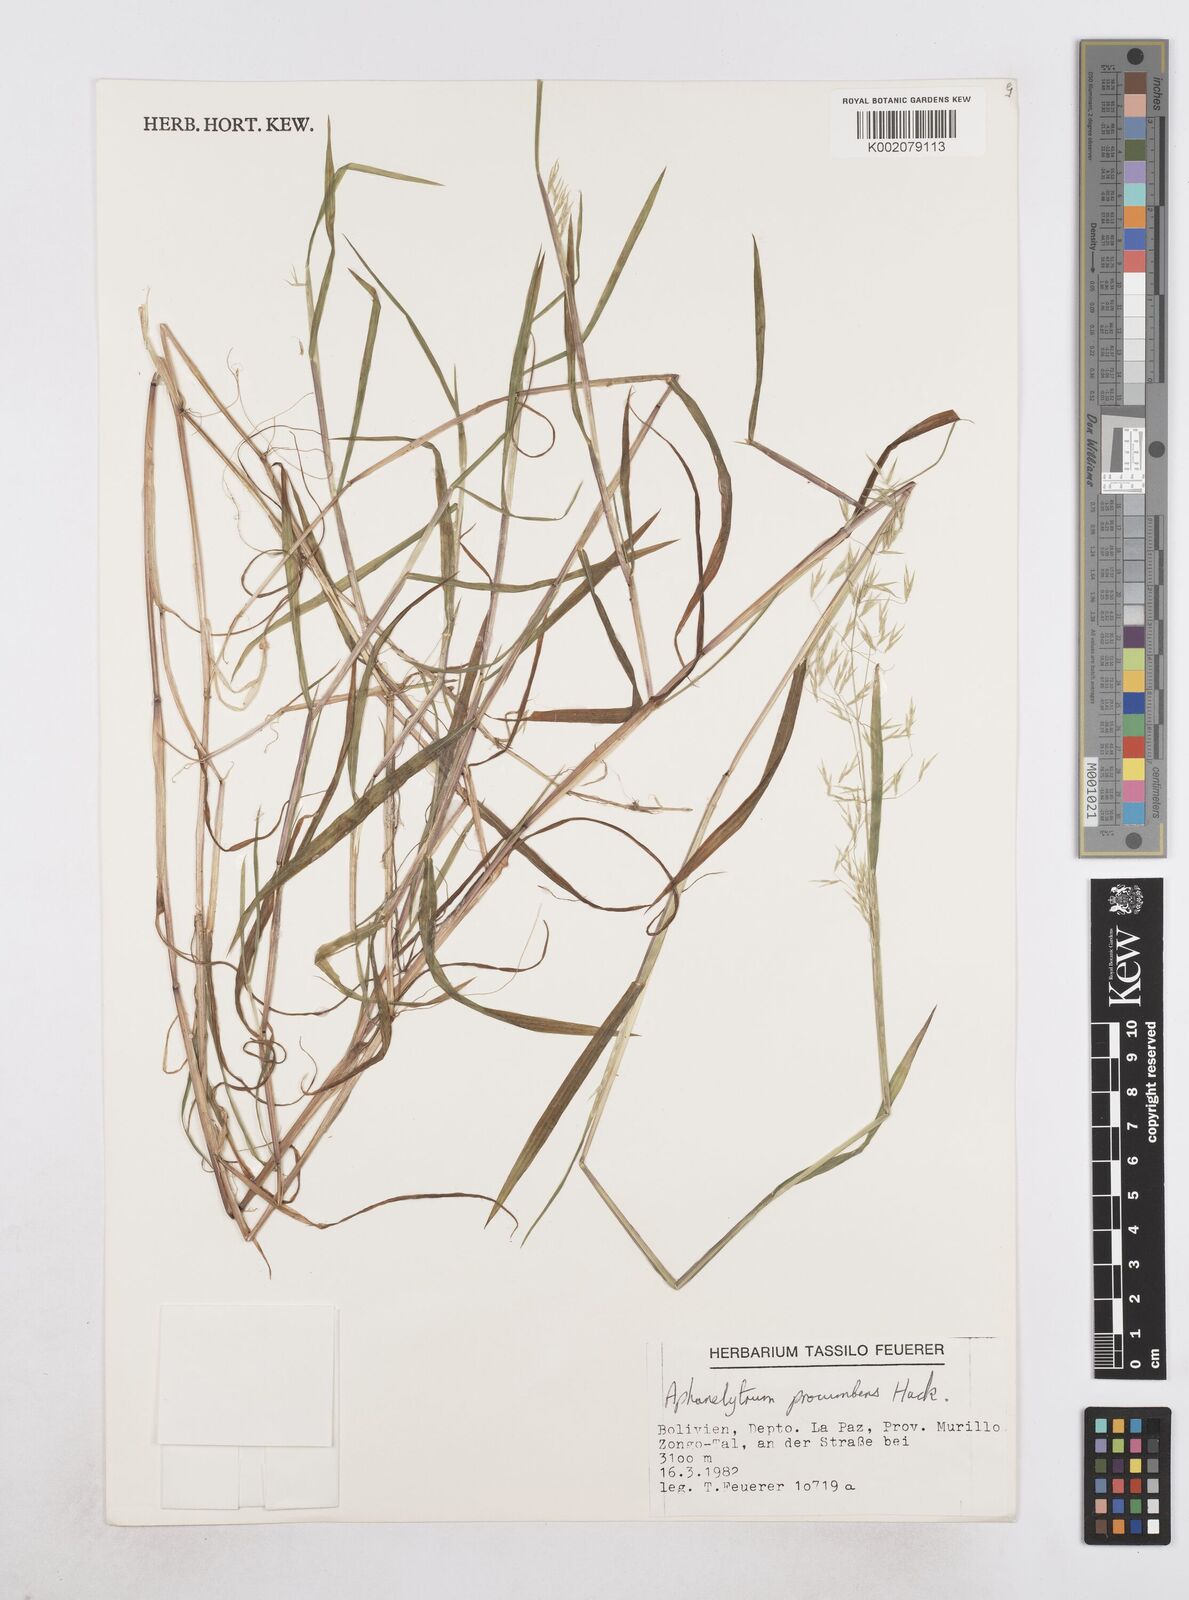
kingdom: Plantae
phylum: Tracheophyta
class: Liliopsida
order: Poales
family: Poaceae
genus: Poa
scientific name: Poa hitchcockiana
